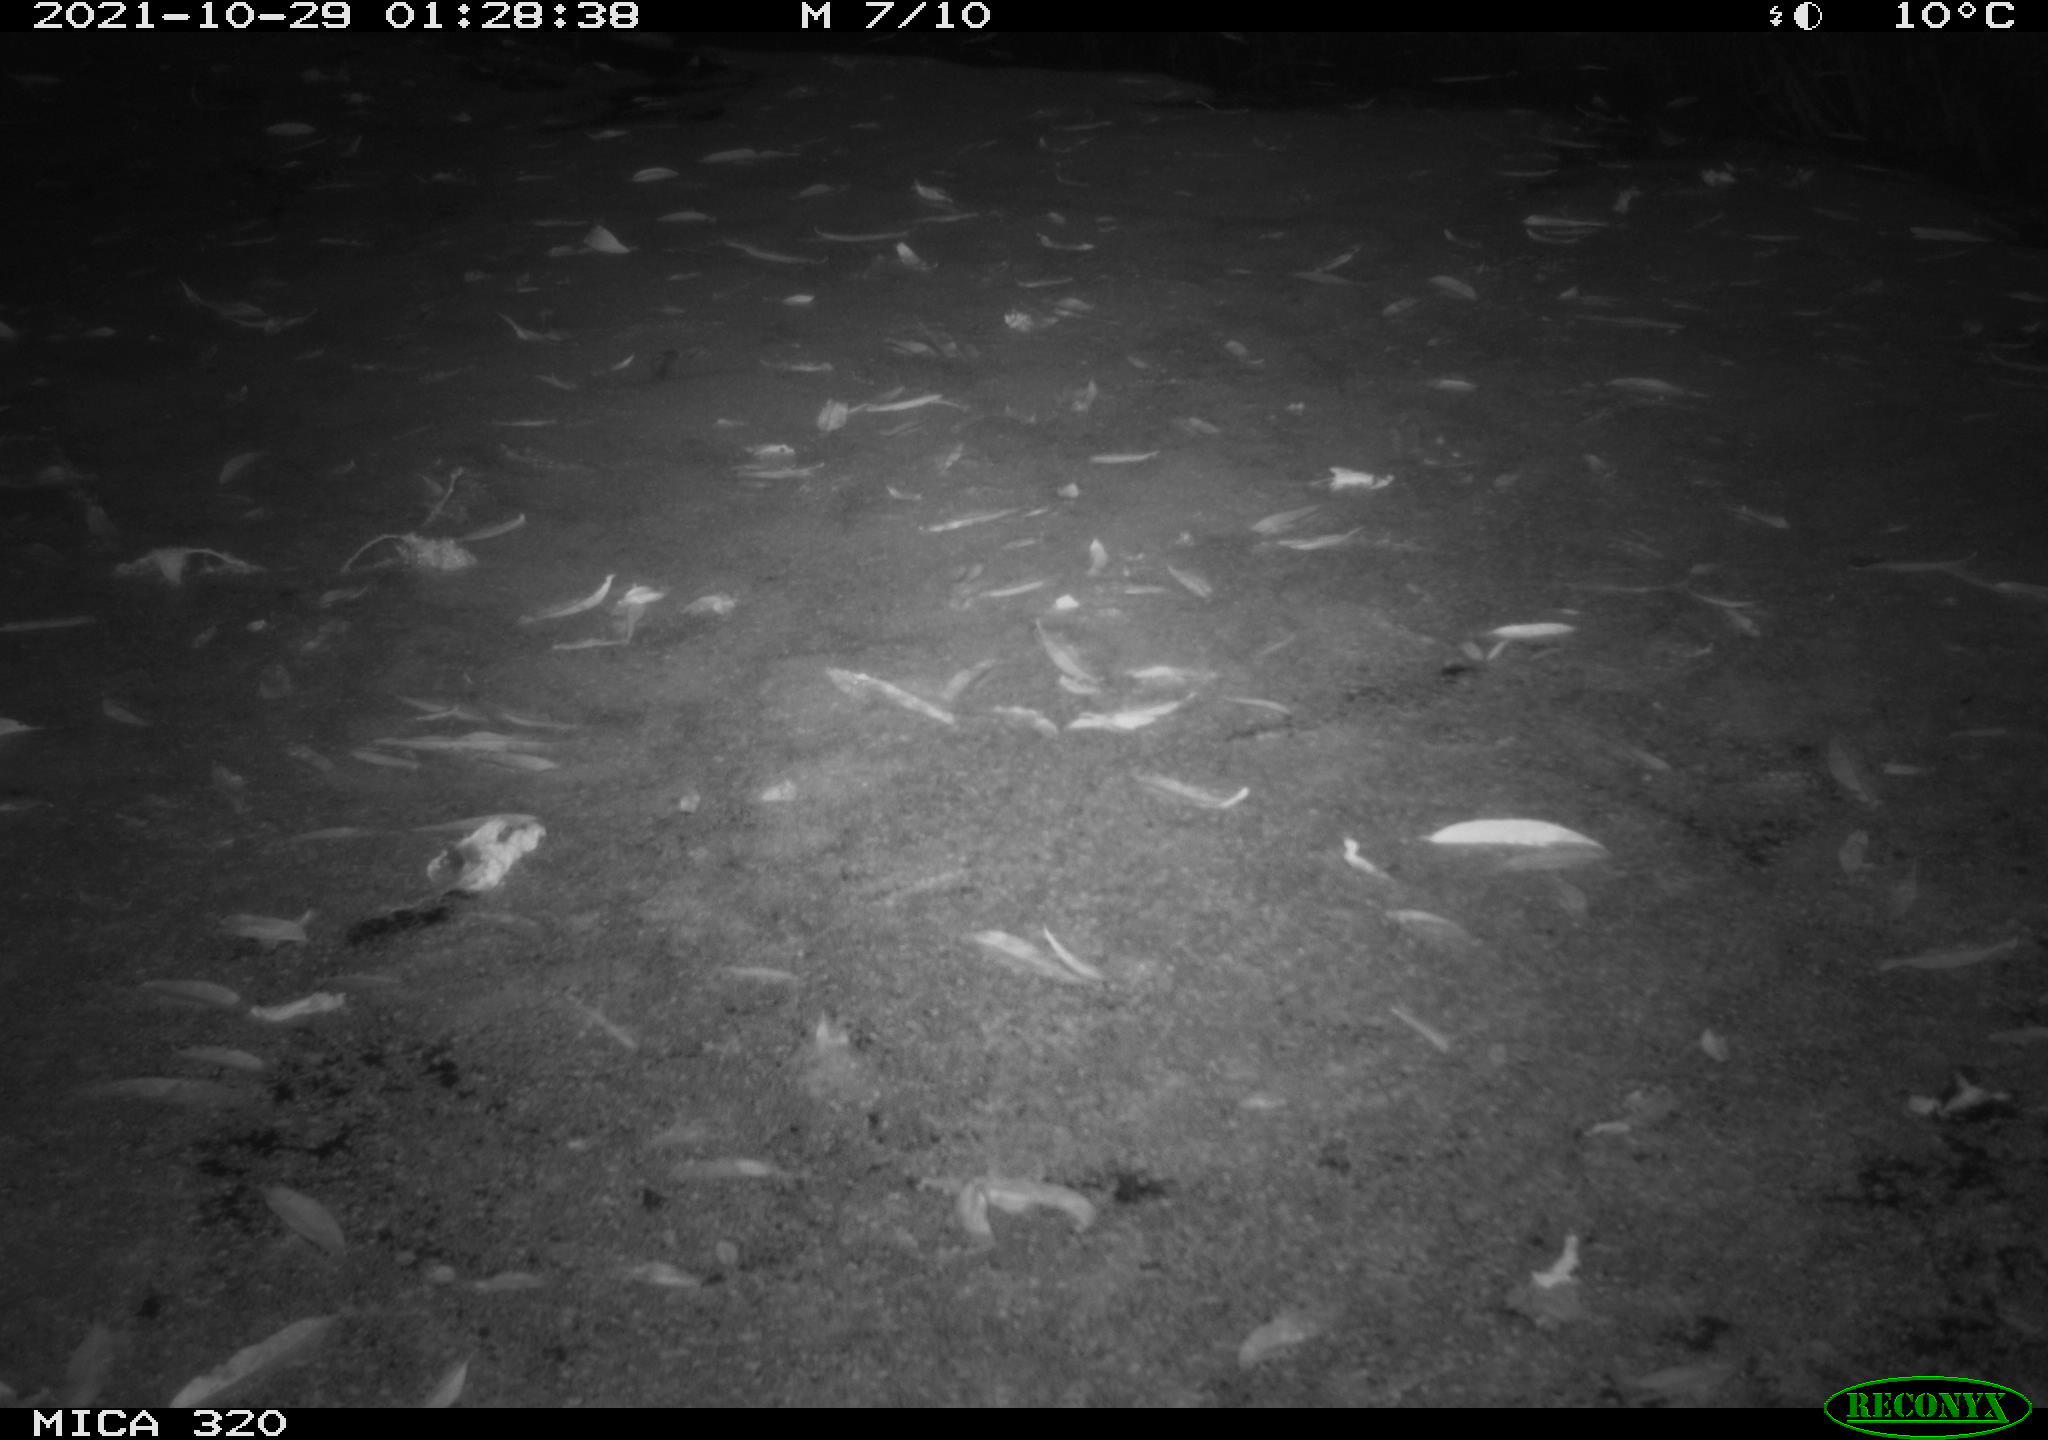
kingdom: Animalia
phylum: Chordata
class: Mammalia
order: Rodentia
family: Muridae
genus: Rattus
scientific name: Rattus norvegicus
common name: Brown rat
